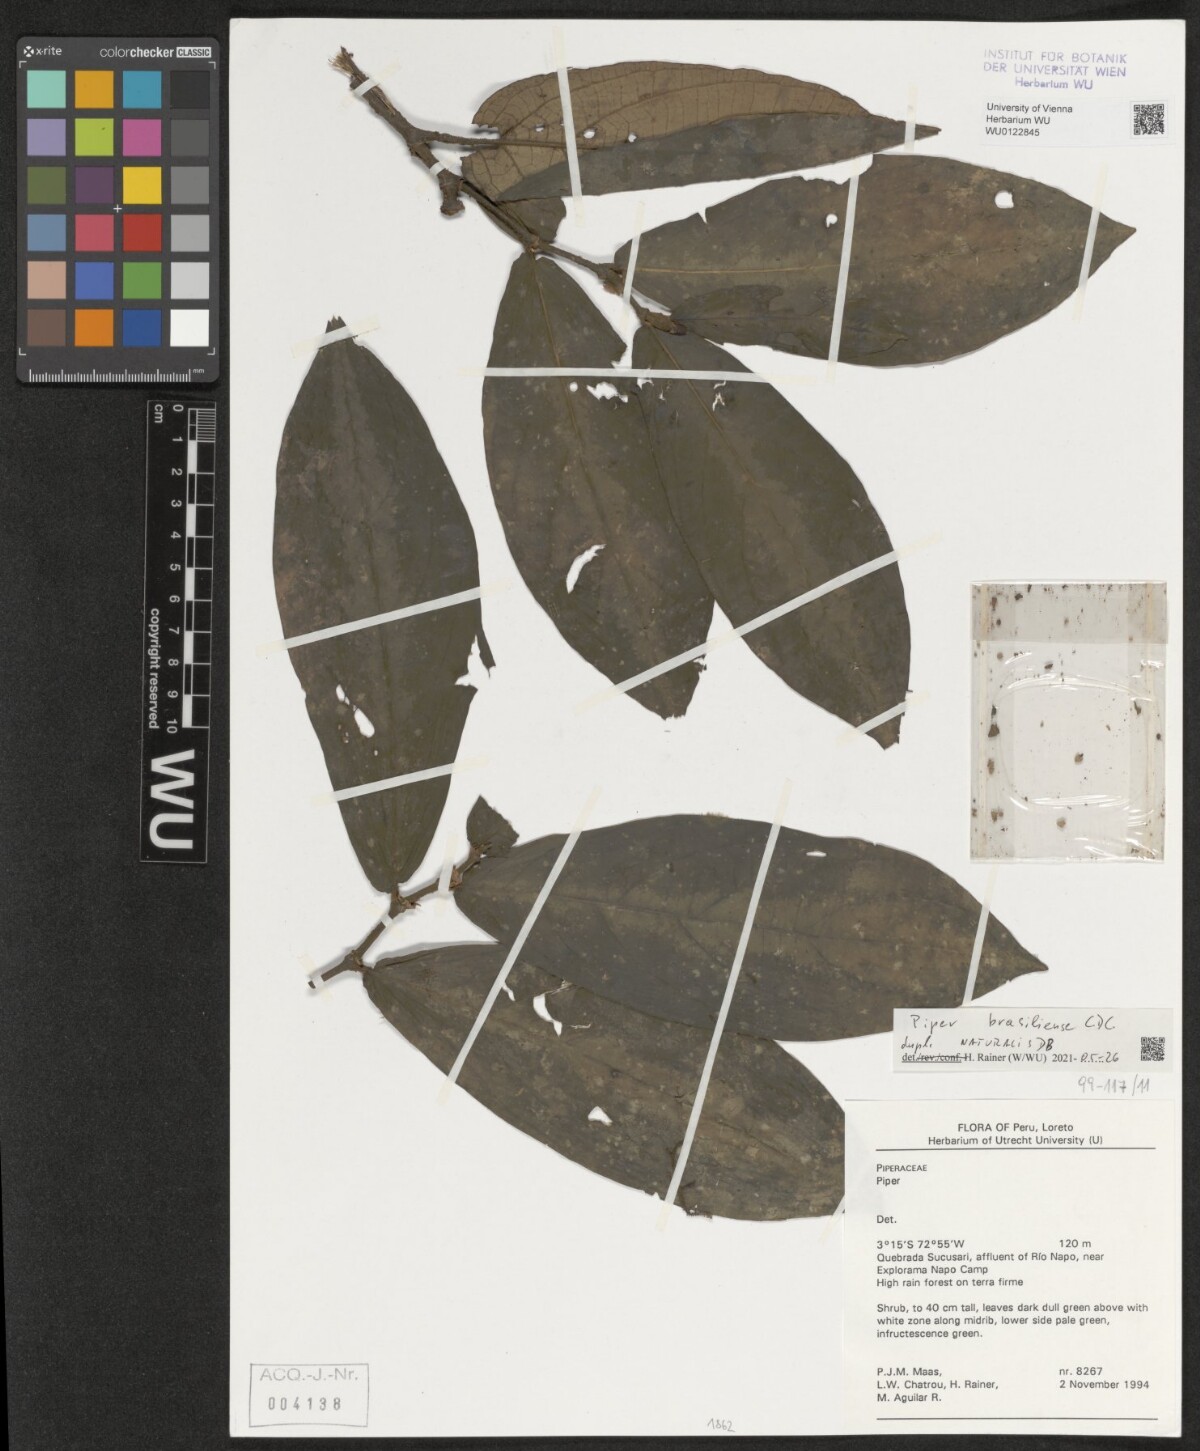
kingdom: Plantae
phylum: Tracheophyta
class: Magnoliopsida
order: Piperales
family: Piperaceae
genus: Piper
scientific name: Piper brasiliense
